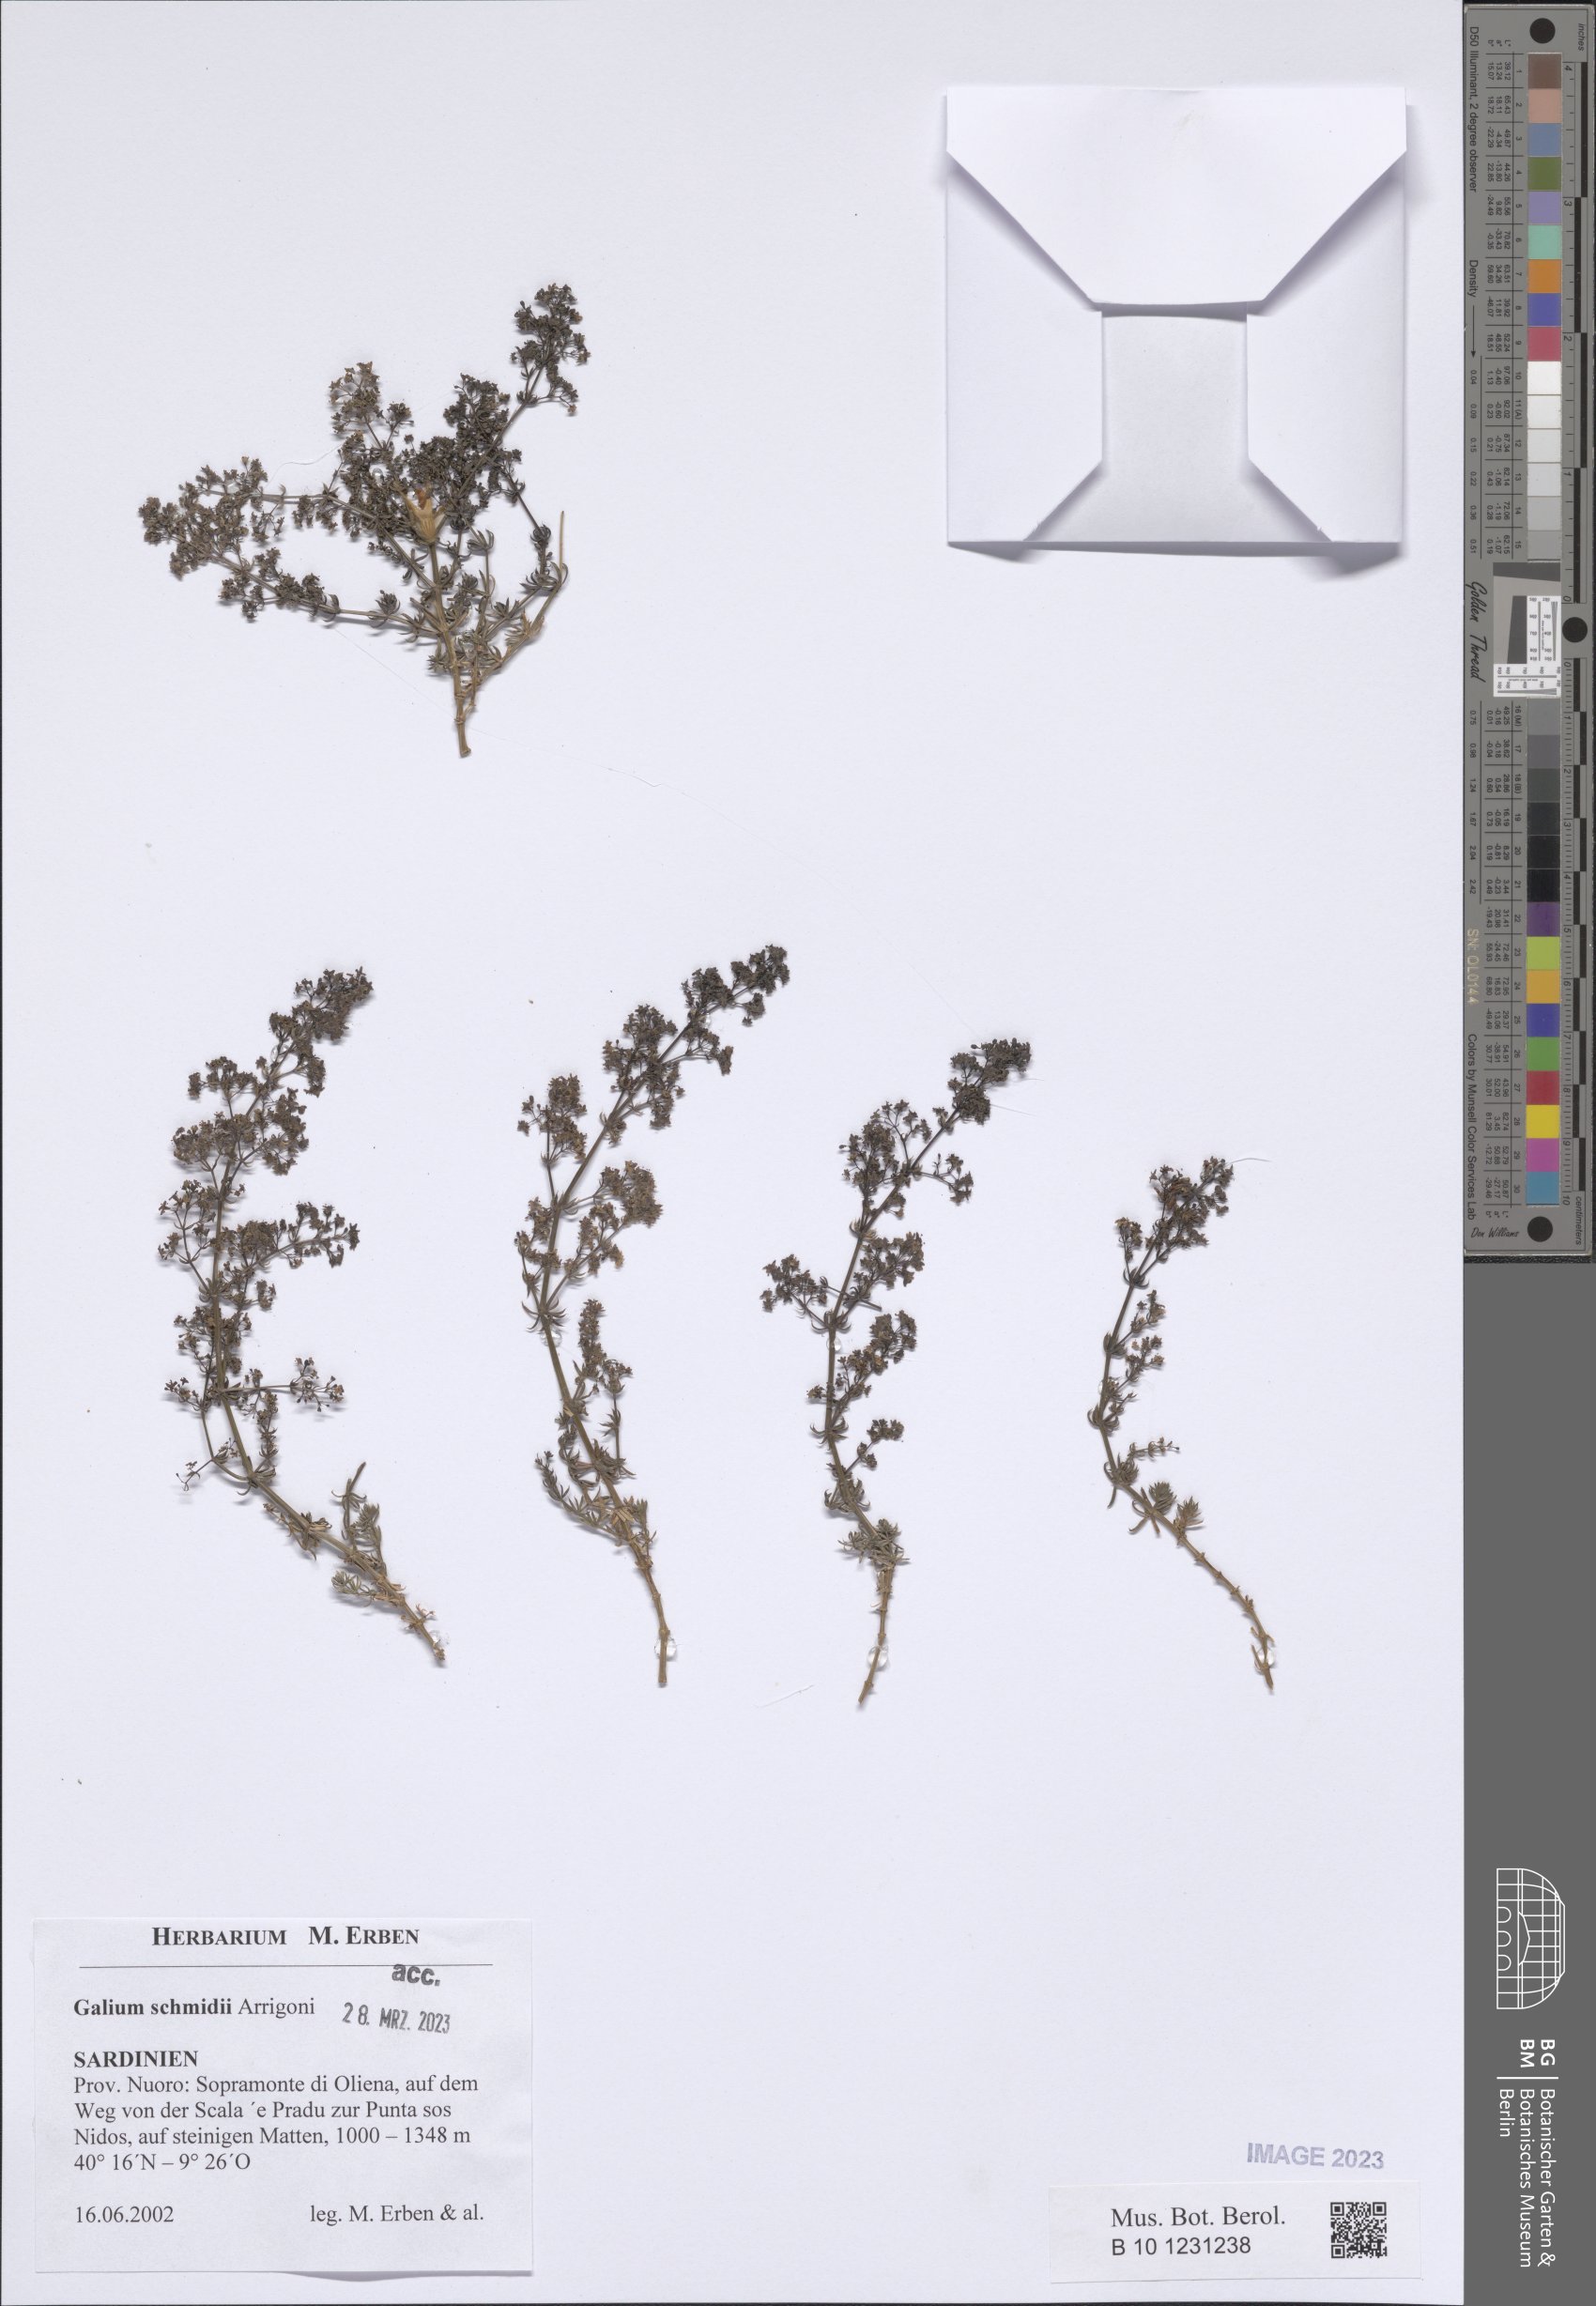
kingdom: Plantae
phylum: Tracheophyta
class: Magnoliopsida
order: Gentianales
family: Rubiaceae
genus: Galium
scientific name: Galium schmidii
